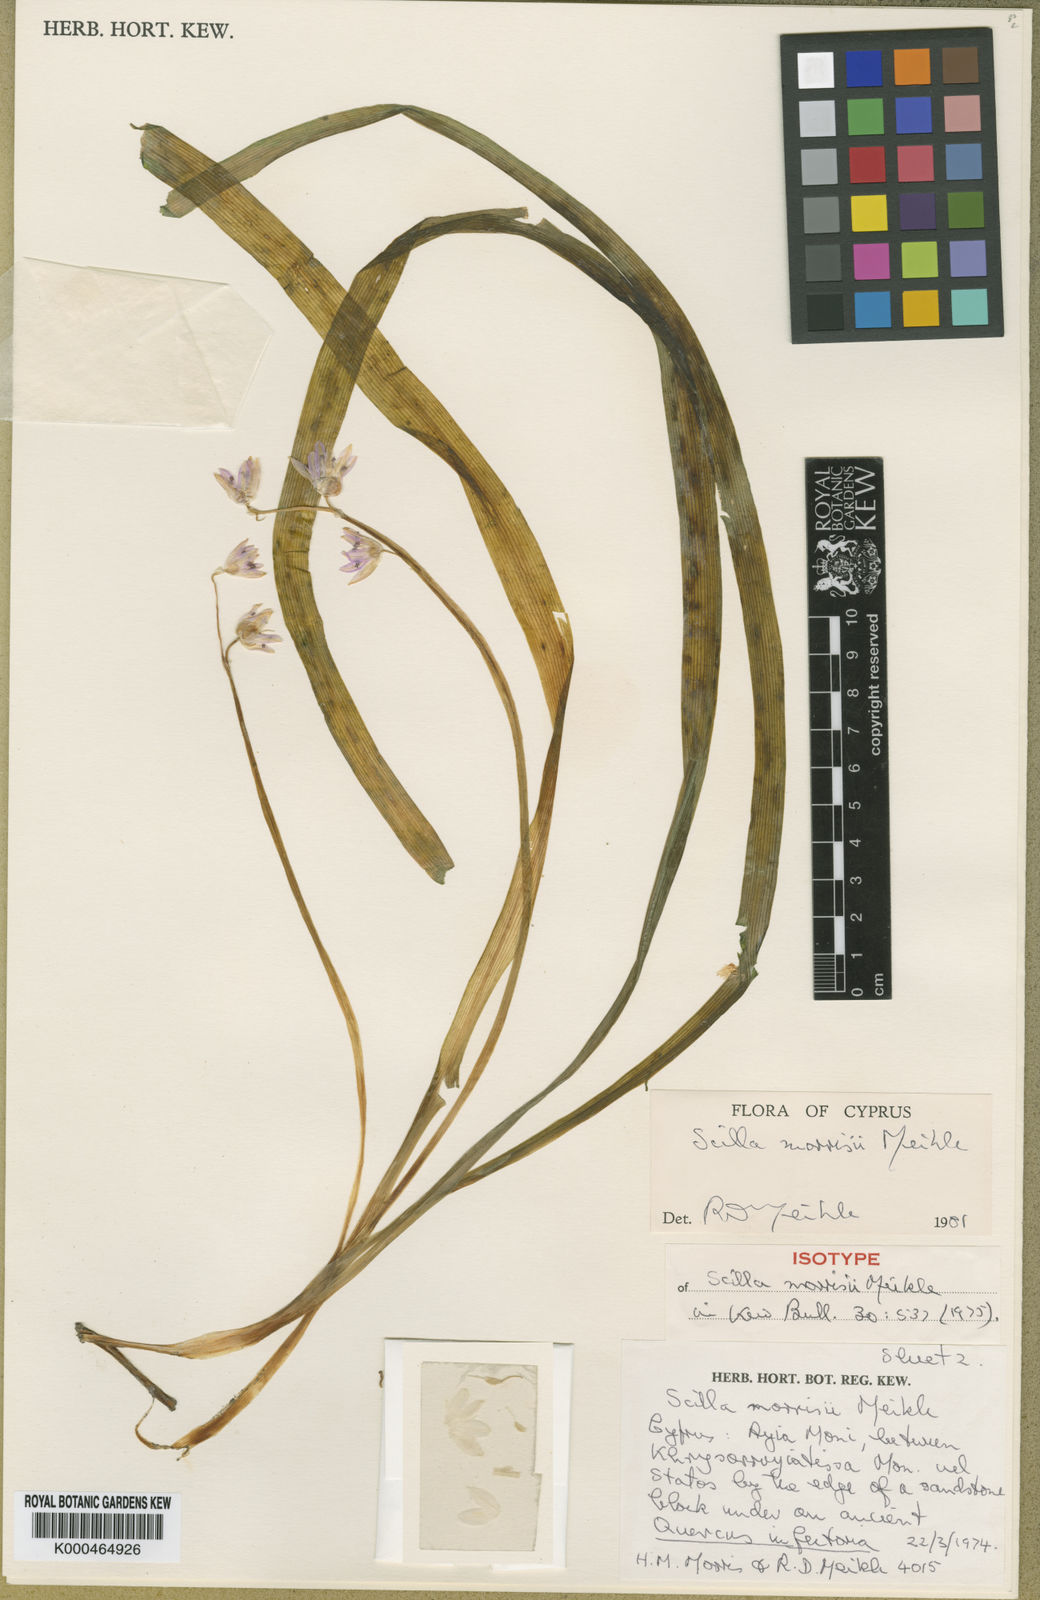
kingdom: Plantae
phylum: Tracheophyta
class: Liliopsida
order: Asparagales
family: Asparagaceae
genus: Scilla
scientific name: Scilla morrisii
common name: Morris squill
